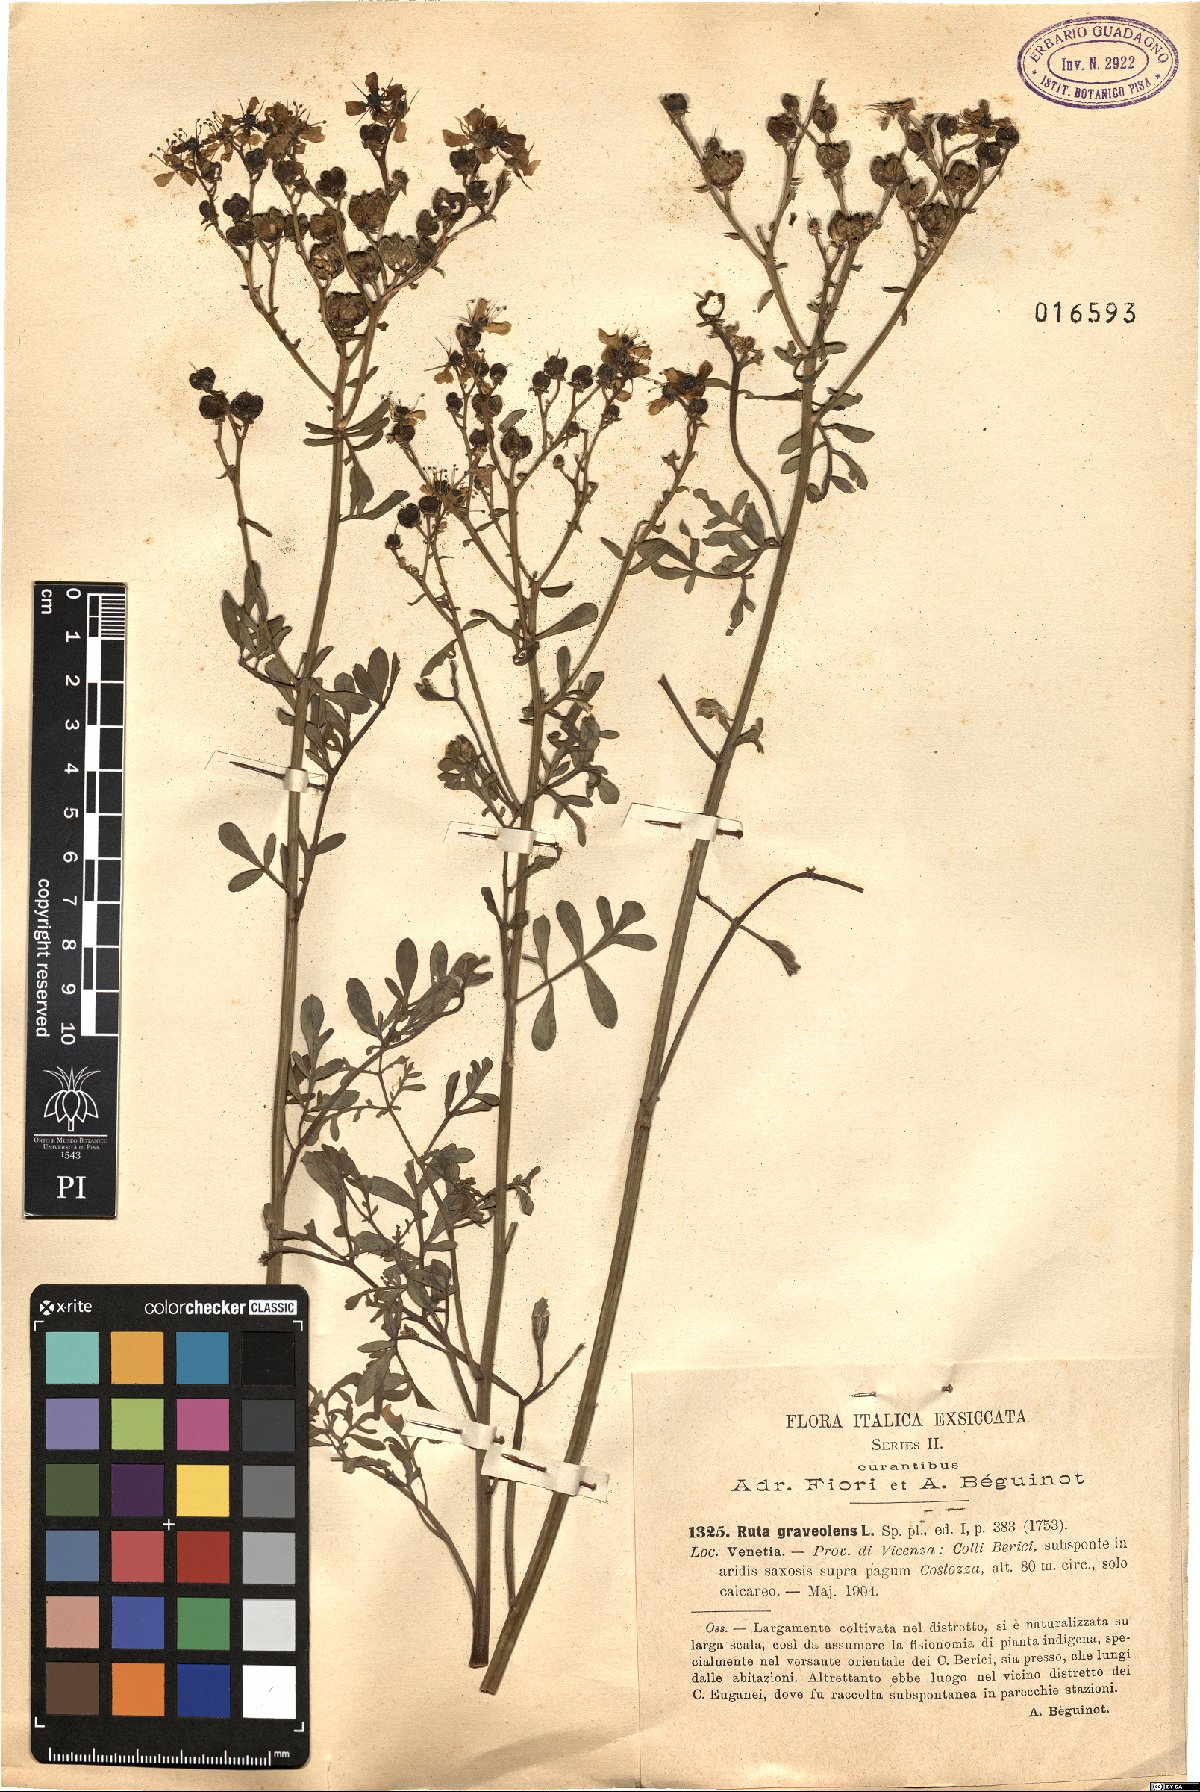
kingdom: Plantae
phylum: Tracheophyta
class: Magnoliopsida
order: Sapindales
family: Rutaceae
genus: Ruta
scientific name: Ruta graveolens
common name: Common rue
